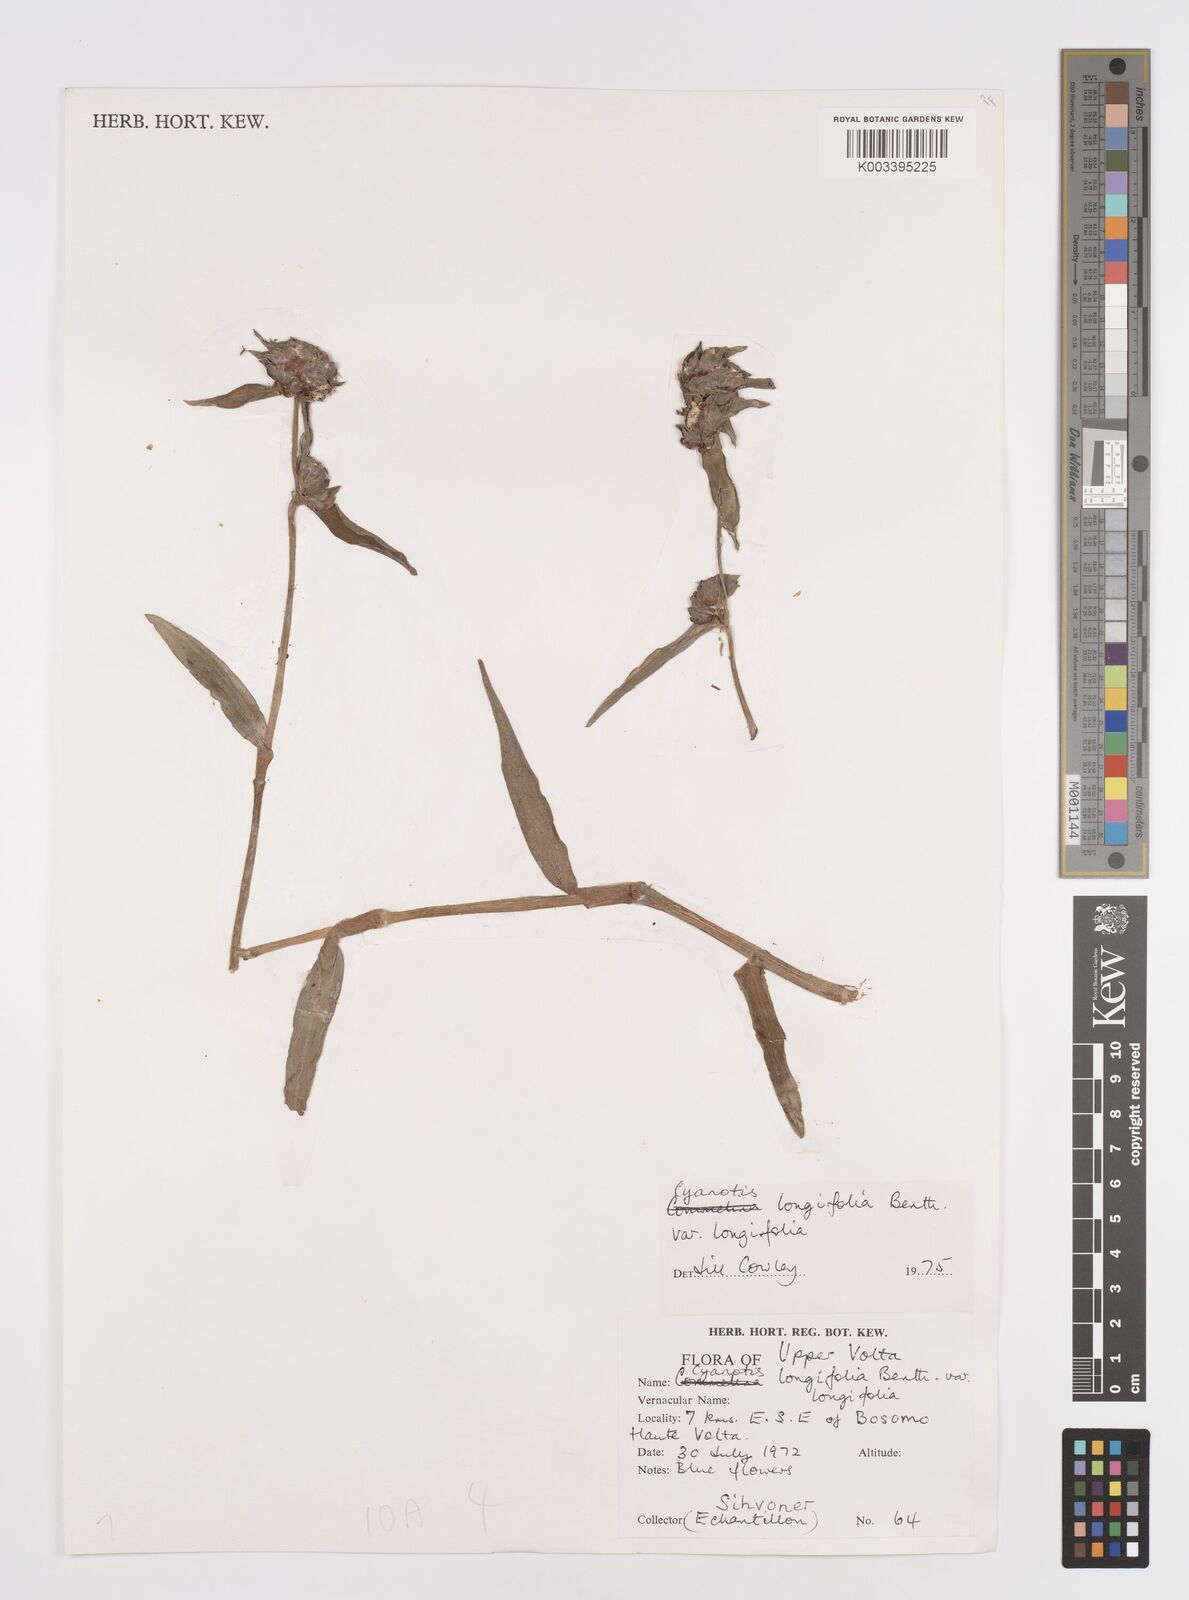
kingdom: Plantae
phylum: Tracheophyta
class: Liliopsida
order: Commelinales
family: Commelinaceae
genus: Cyanotis
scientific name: Cyanotis longifolia
